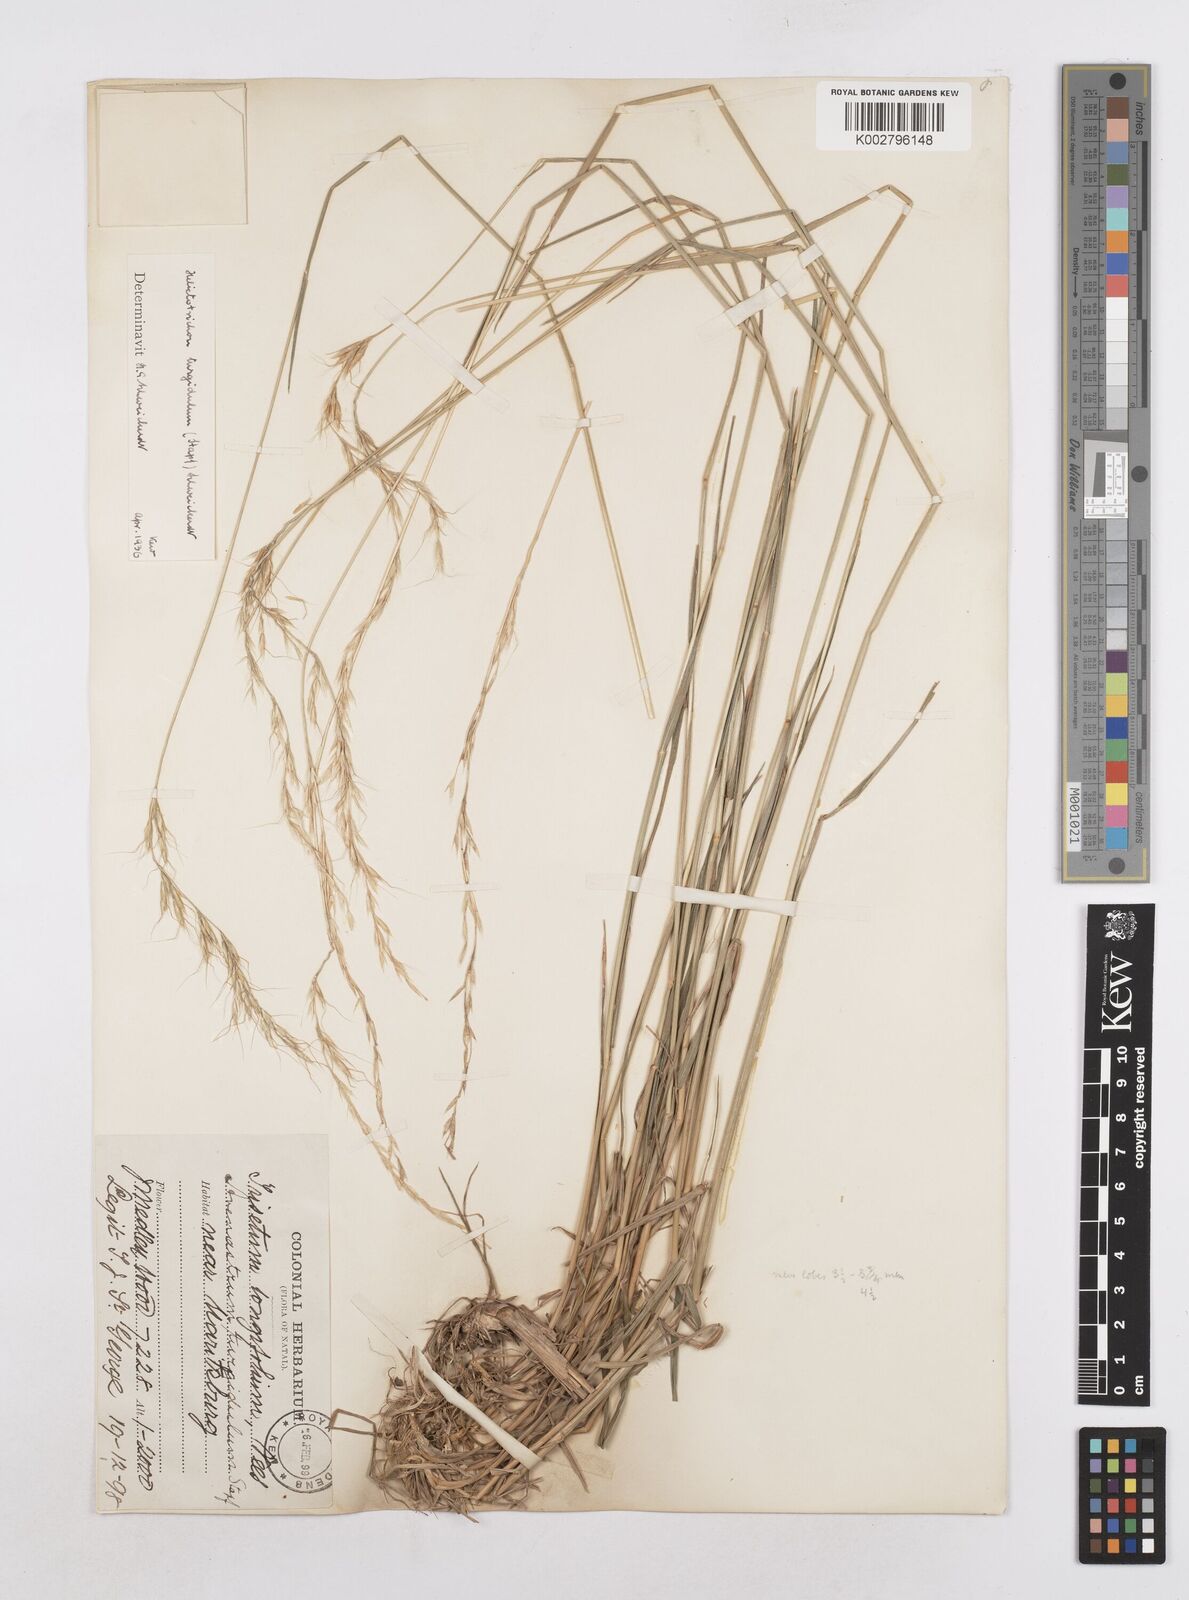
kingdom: Plantae
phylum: Tracheophyta
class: Liliopsida
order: Poales
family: Poaceae
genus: Trisetopsis
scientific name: Trisetopsis imberbis
